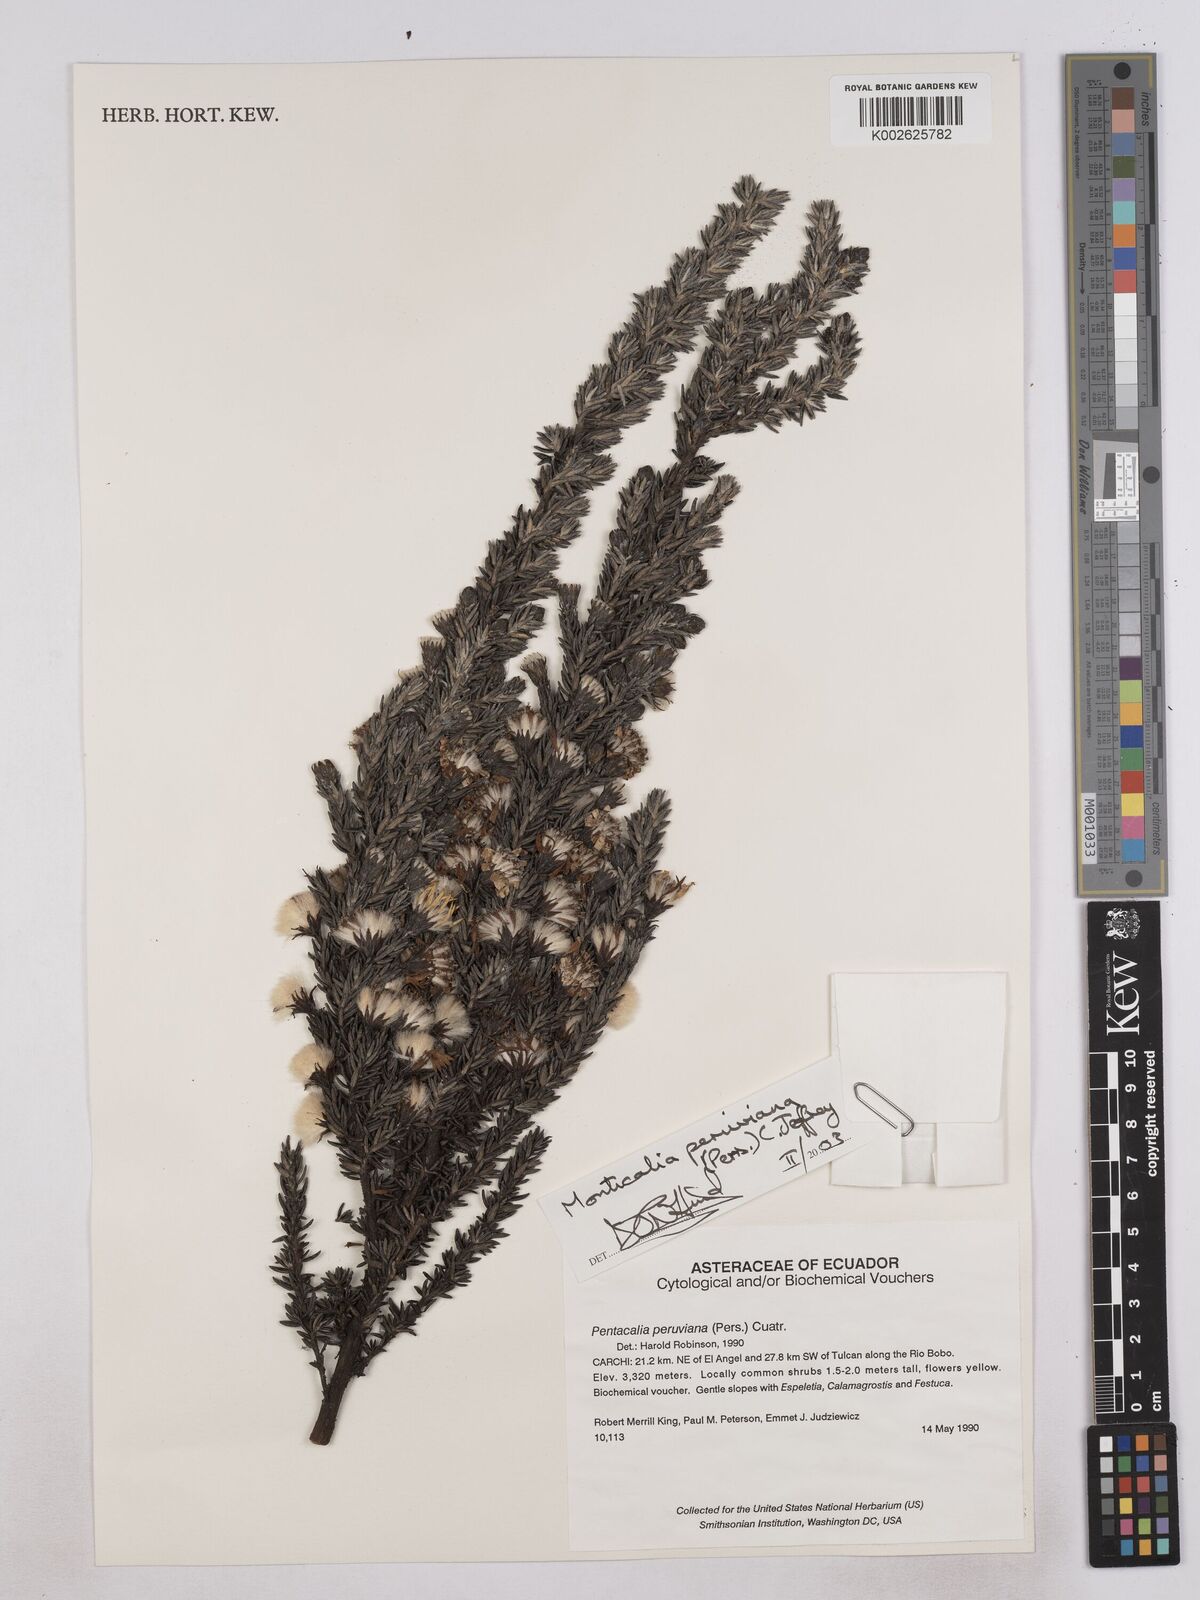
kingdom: Plantae
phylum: Tracheophyta
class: Magnoliopsida
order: Asterales
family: Asteraceae
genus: Monticalia
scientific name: Monticalia peruviana
